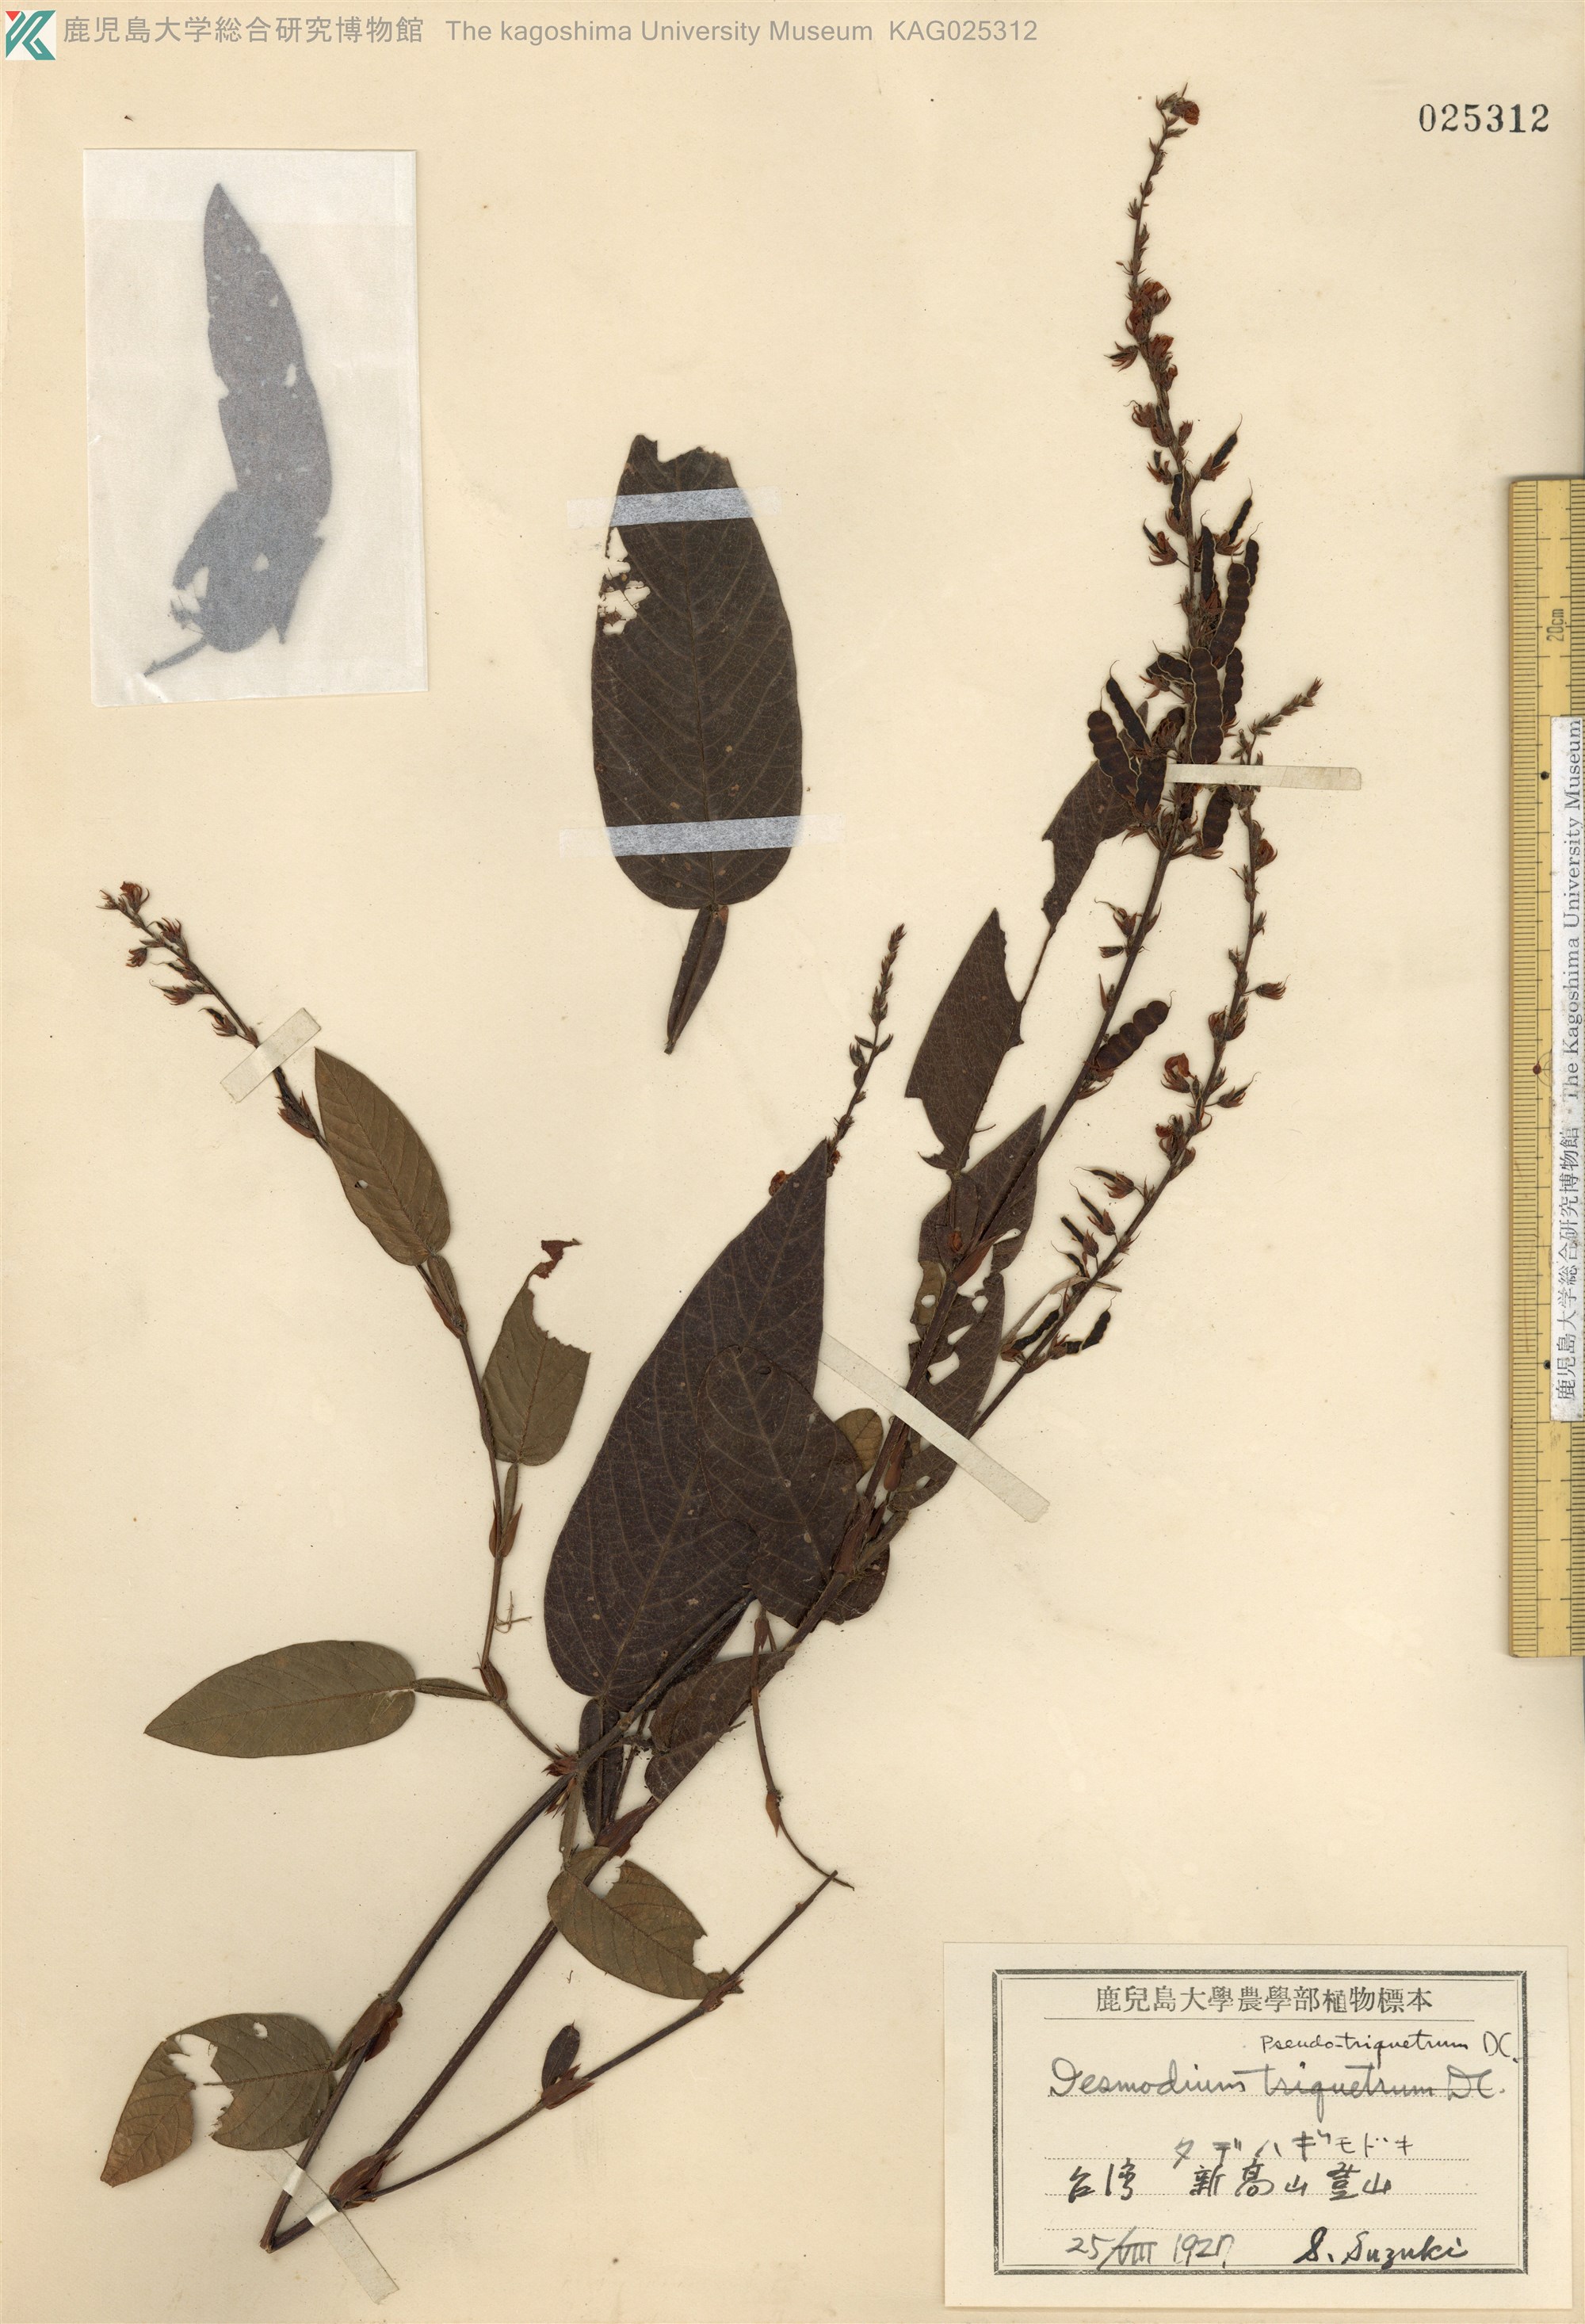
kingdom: Plantae
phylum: Tracheophyta
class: Magnoliopsida
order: Fabales
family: Fabaceae
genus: Tadehagi
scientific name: Tadehagi pseudotriquetrum
